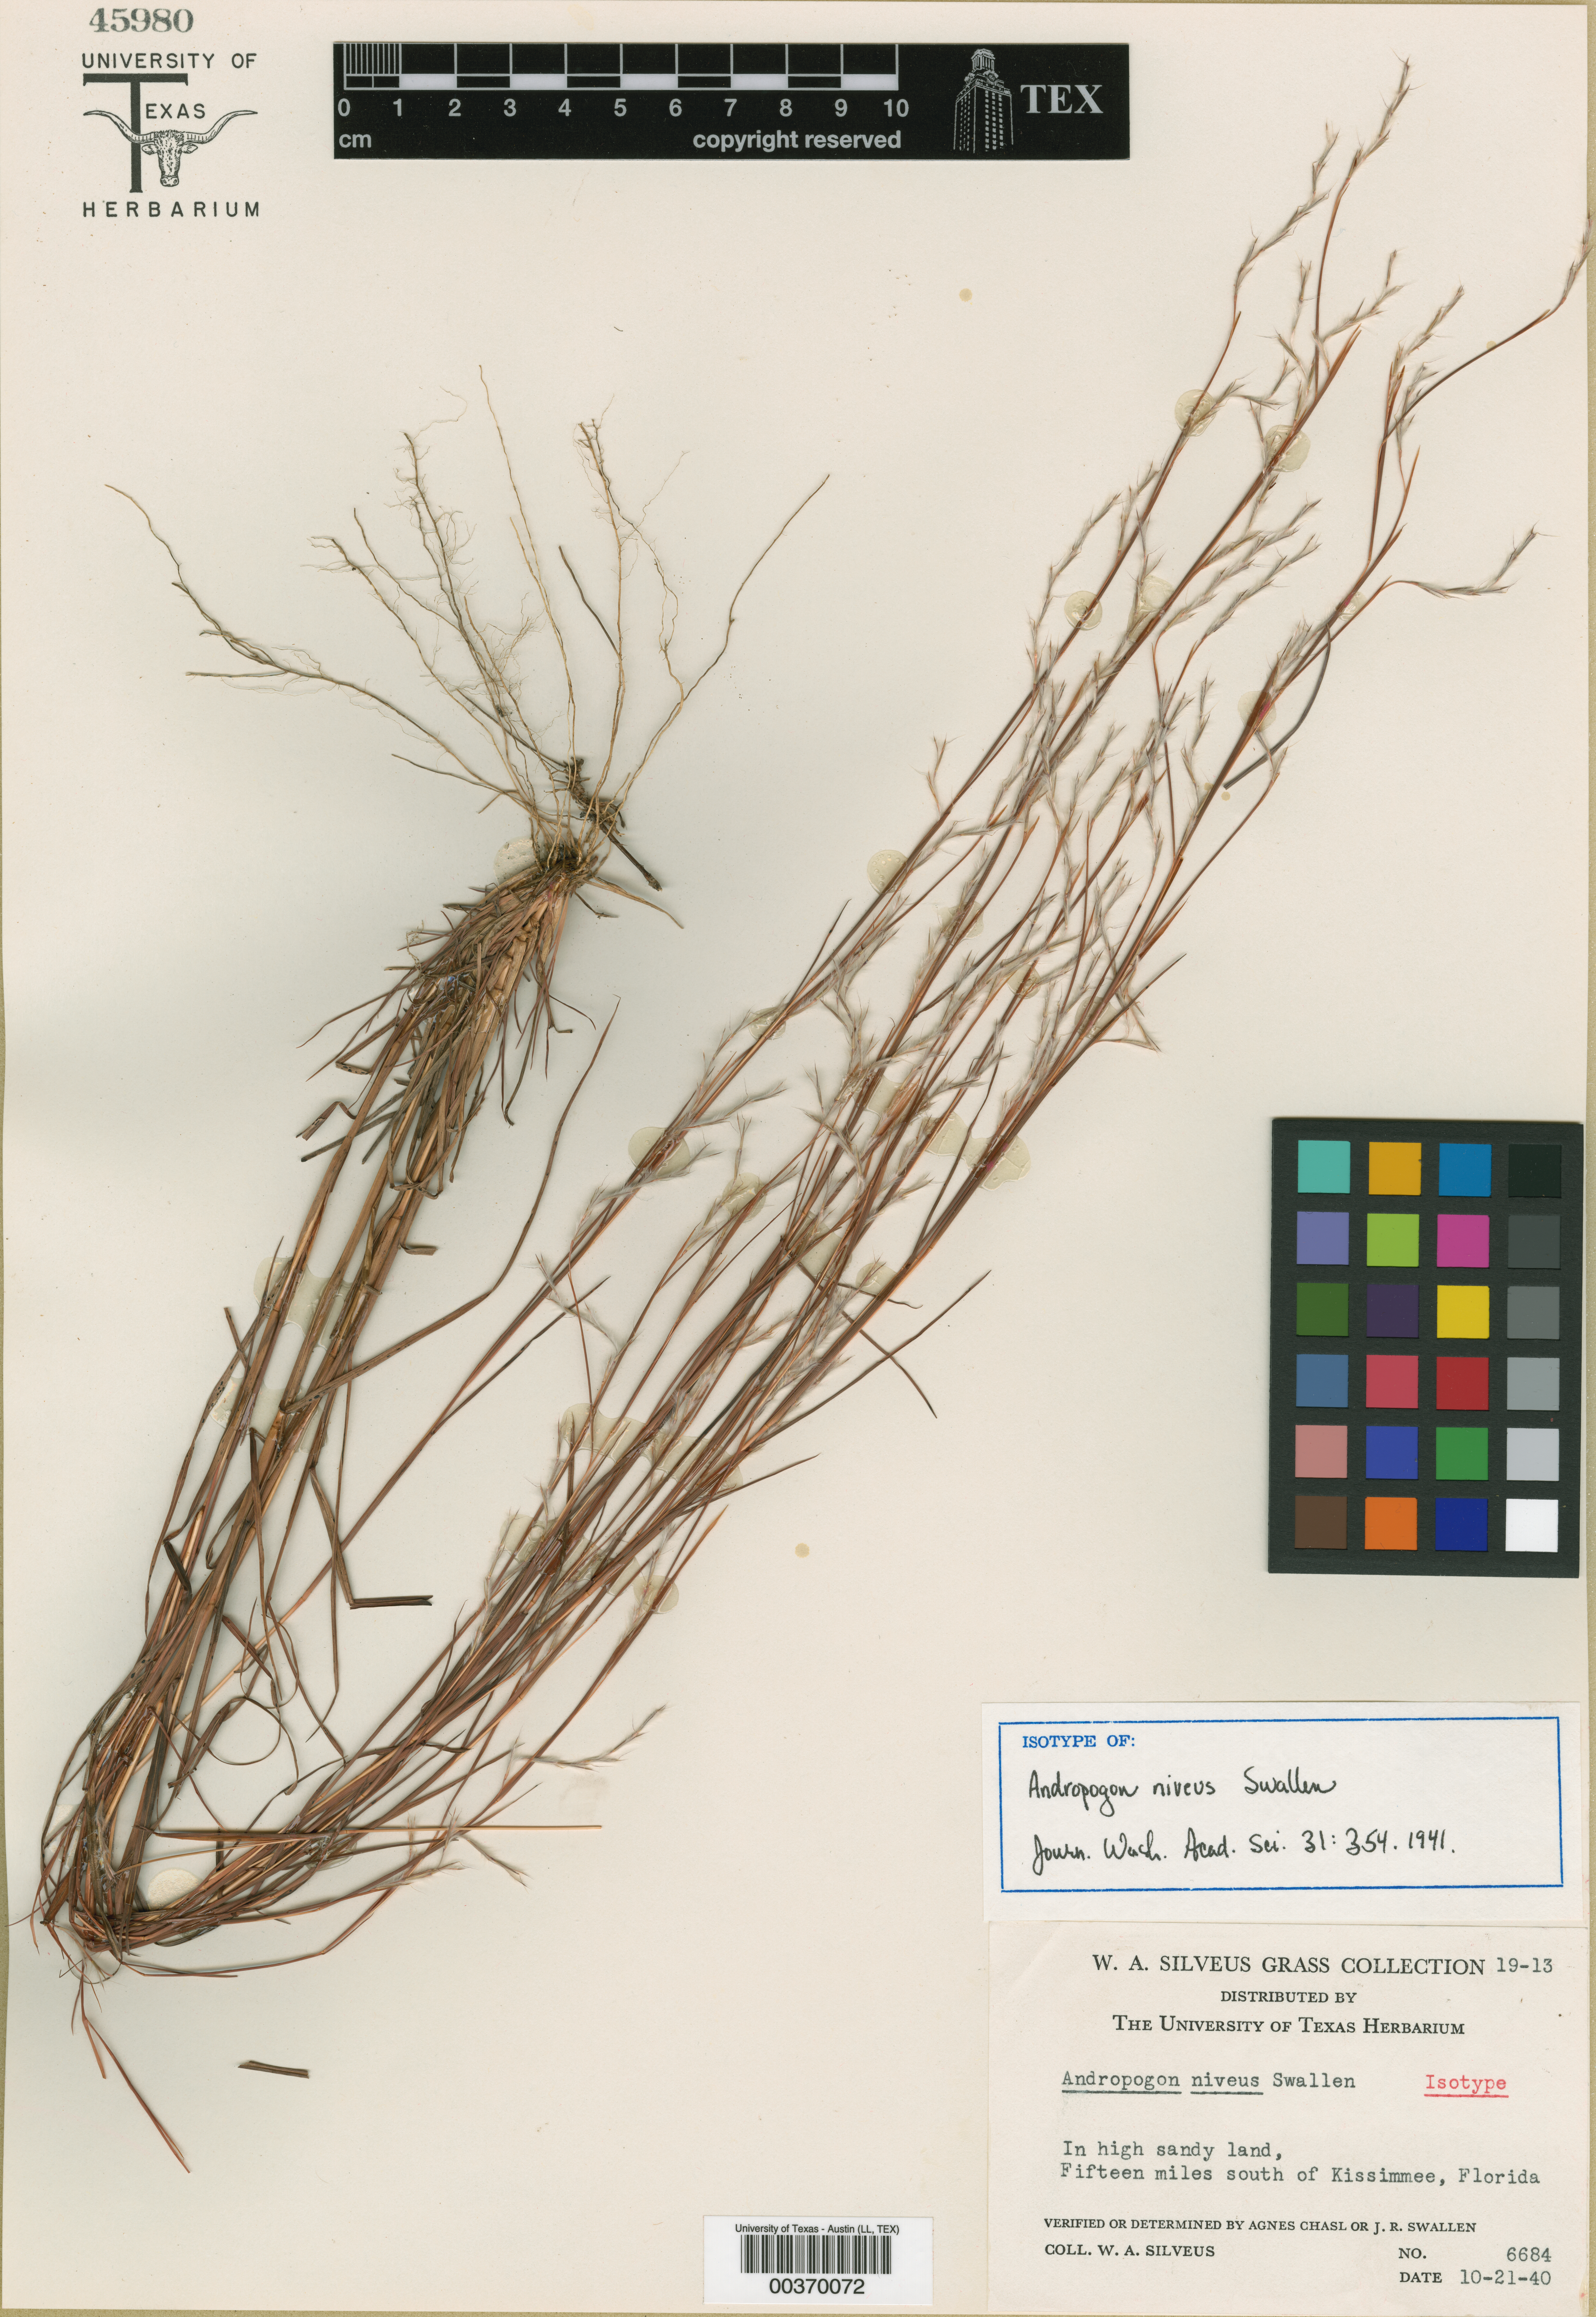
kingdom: Plantae
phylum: Tracheophyta
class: Liliopsida
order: Poales
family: Poaceae
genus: Schizachyrium
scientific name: Schizachyrium niveum
